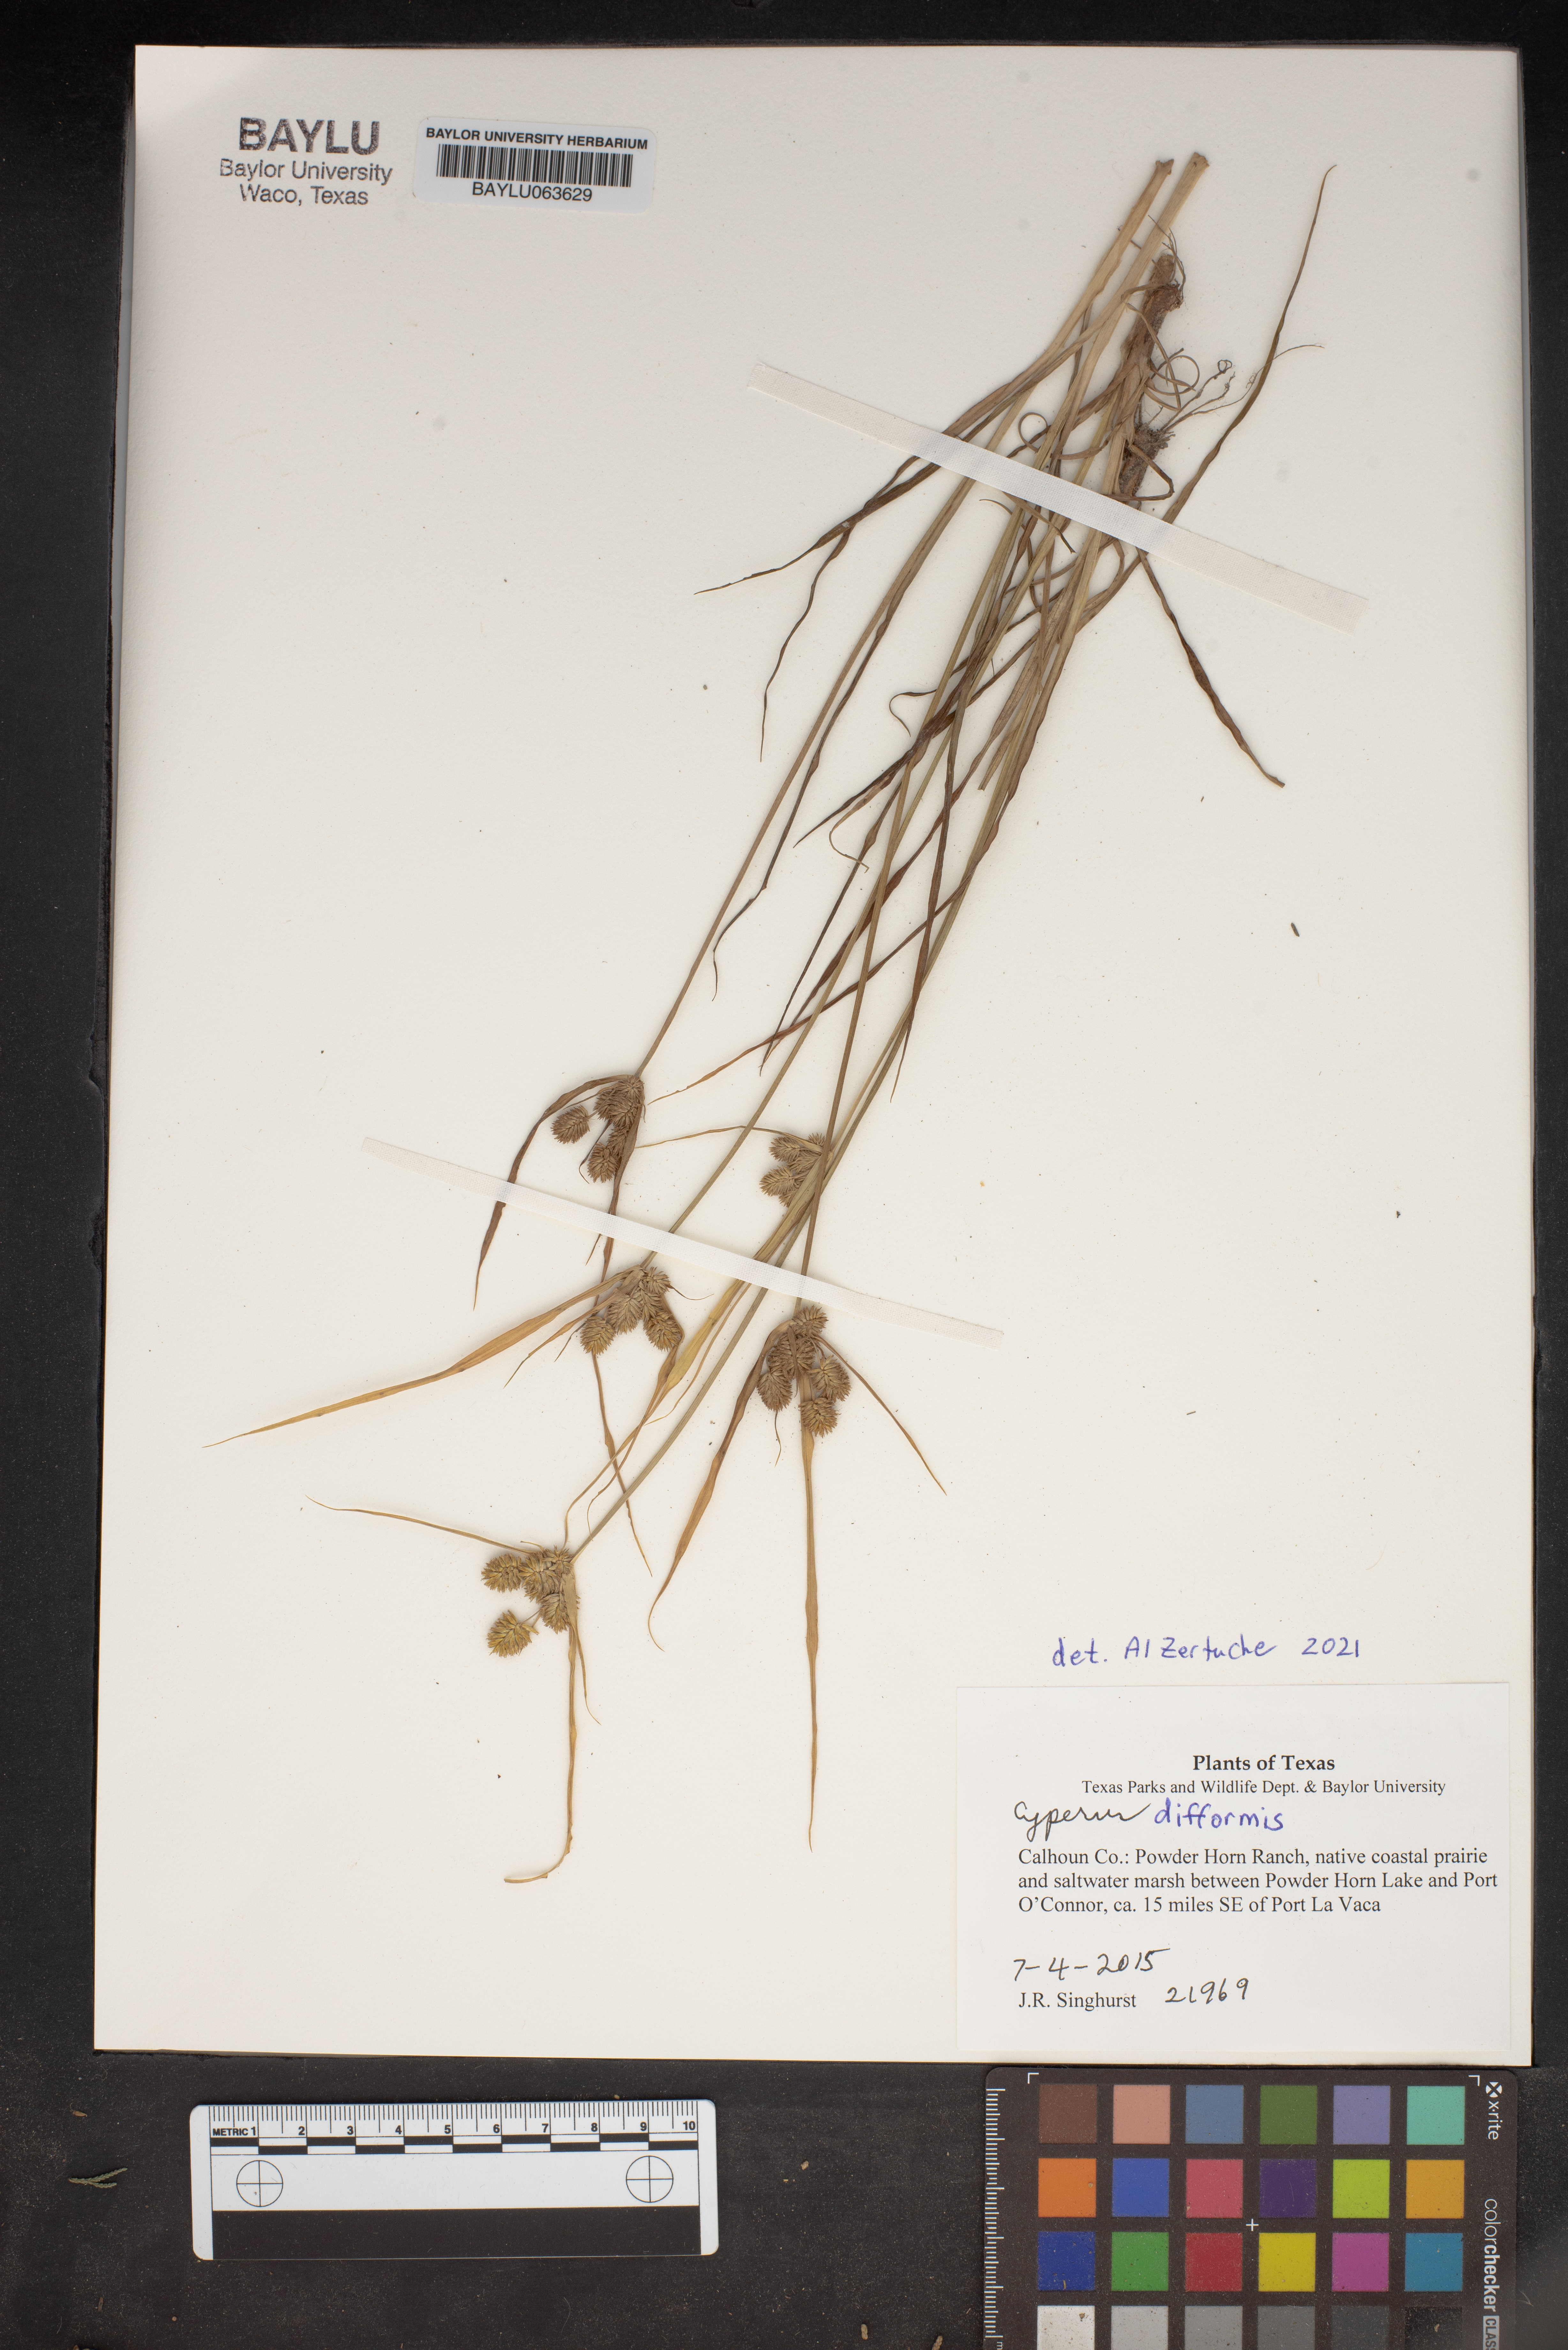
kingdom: Plantae
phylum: Tracheophyta
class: Liliopsida
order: Poales
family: Cyperaceae
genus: Cyperus
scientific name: Cyperus difformis
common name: Variable flatsedge
